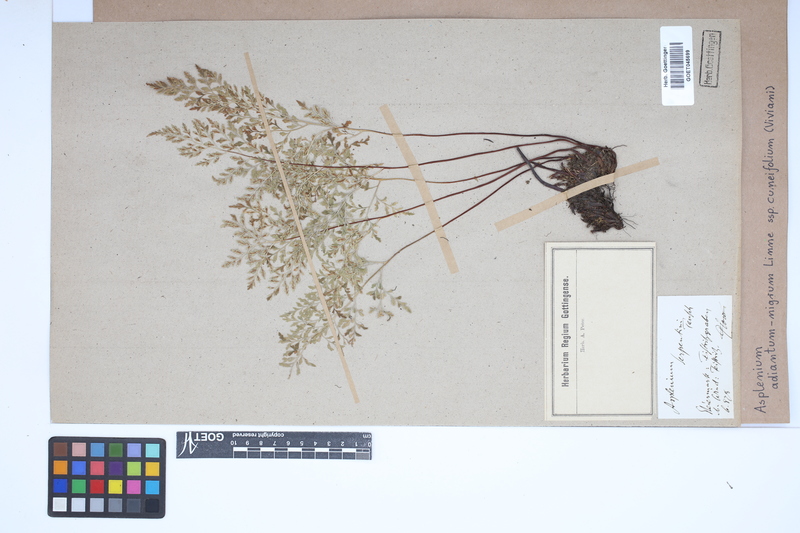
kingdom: Plantae
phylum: Tracheophyta
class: Polypodiopsida
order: Polypodiales
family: Aspleniaceae
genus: Asplenium
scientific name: Asplenium cuneifolium
